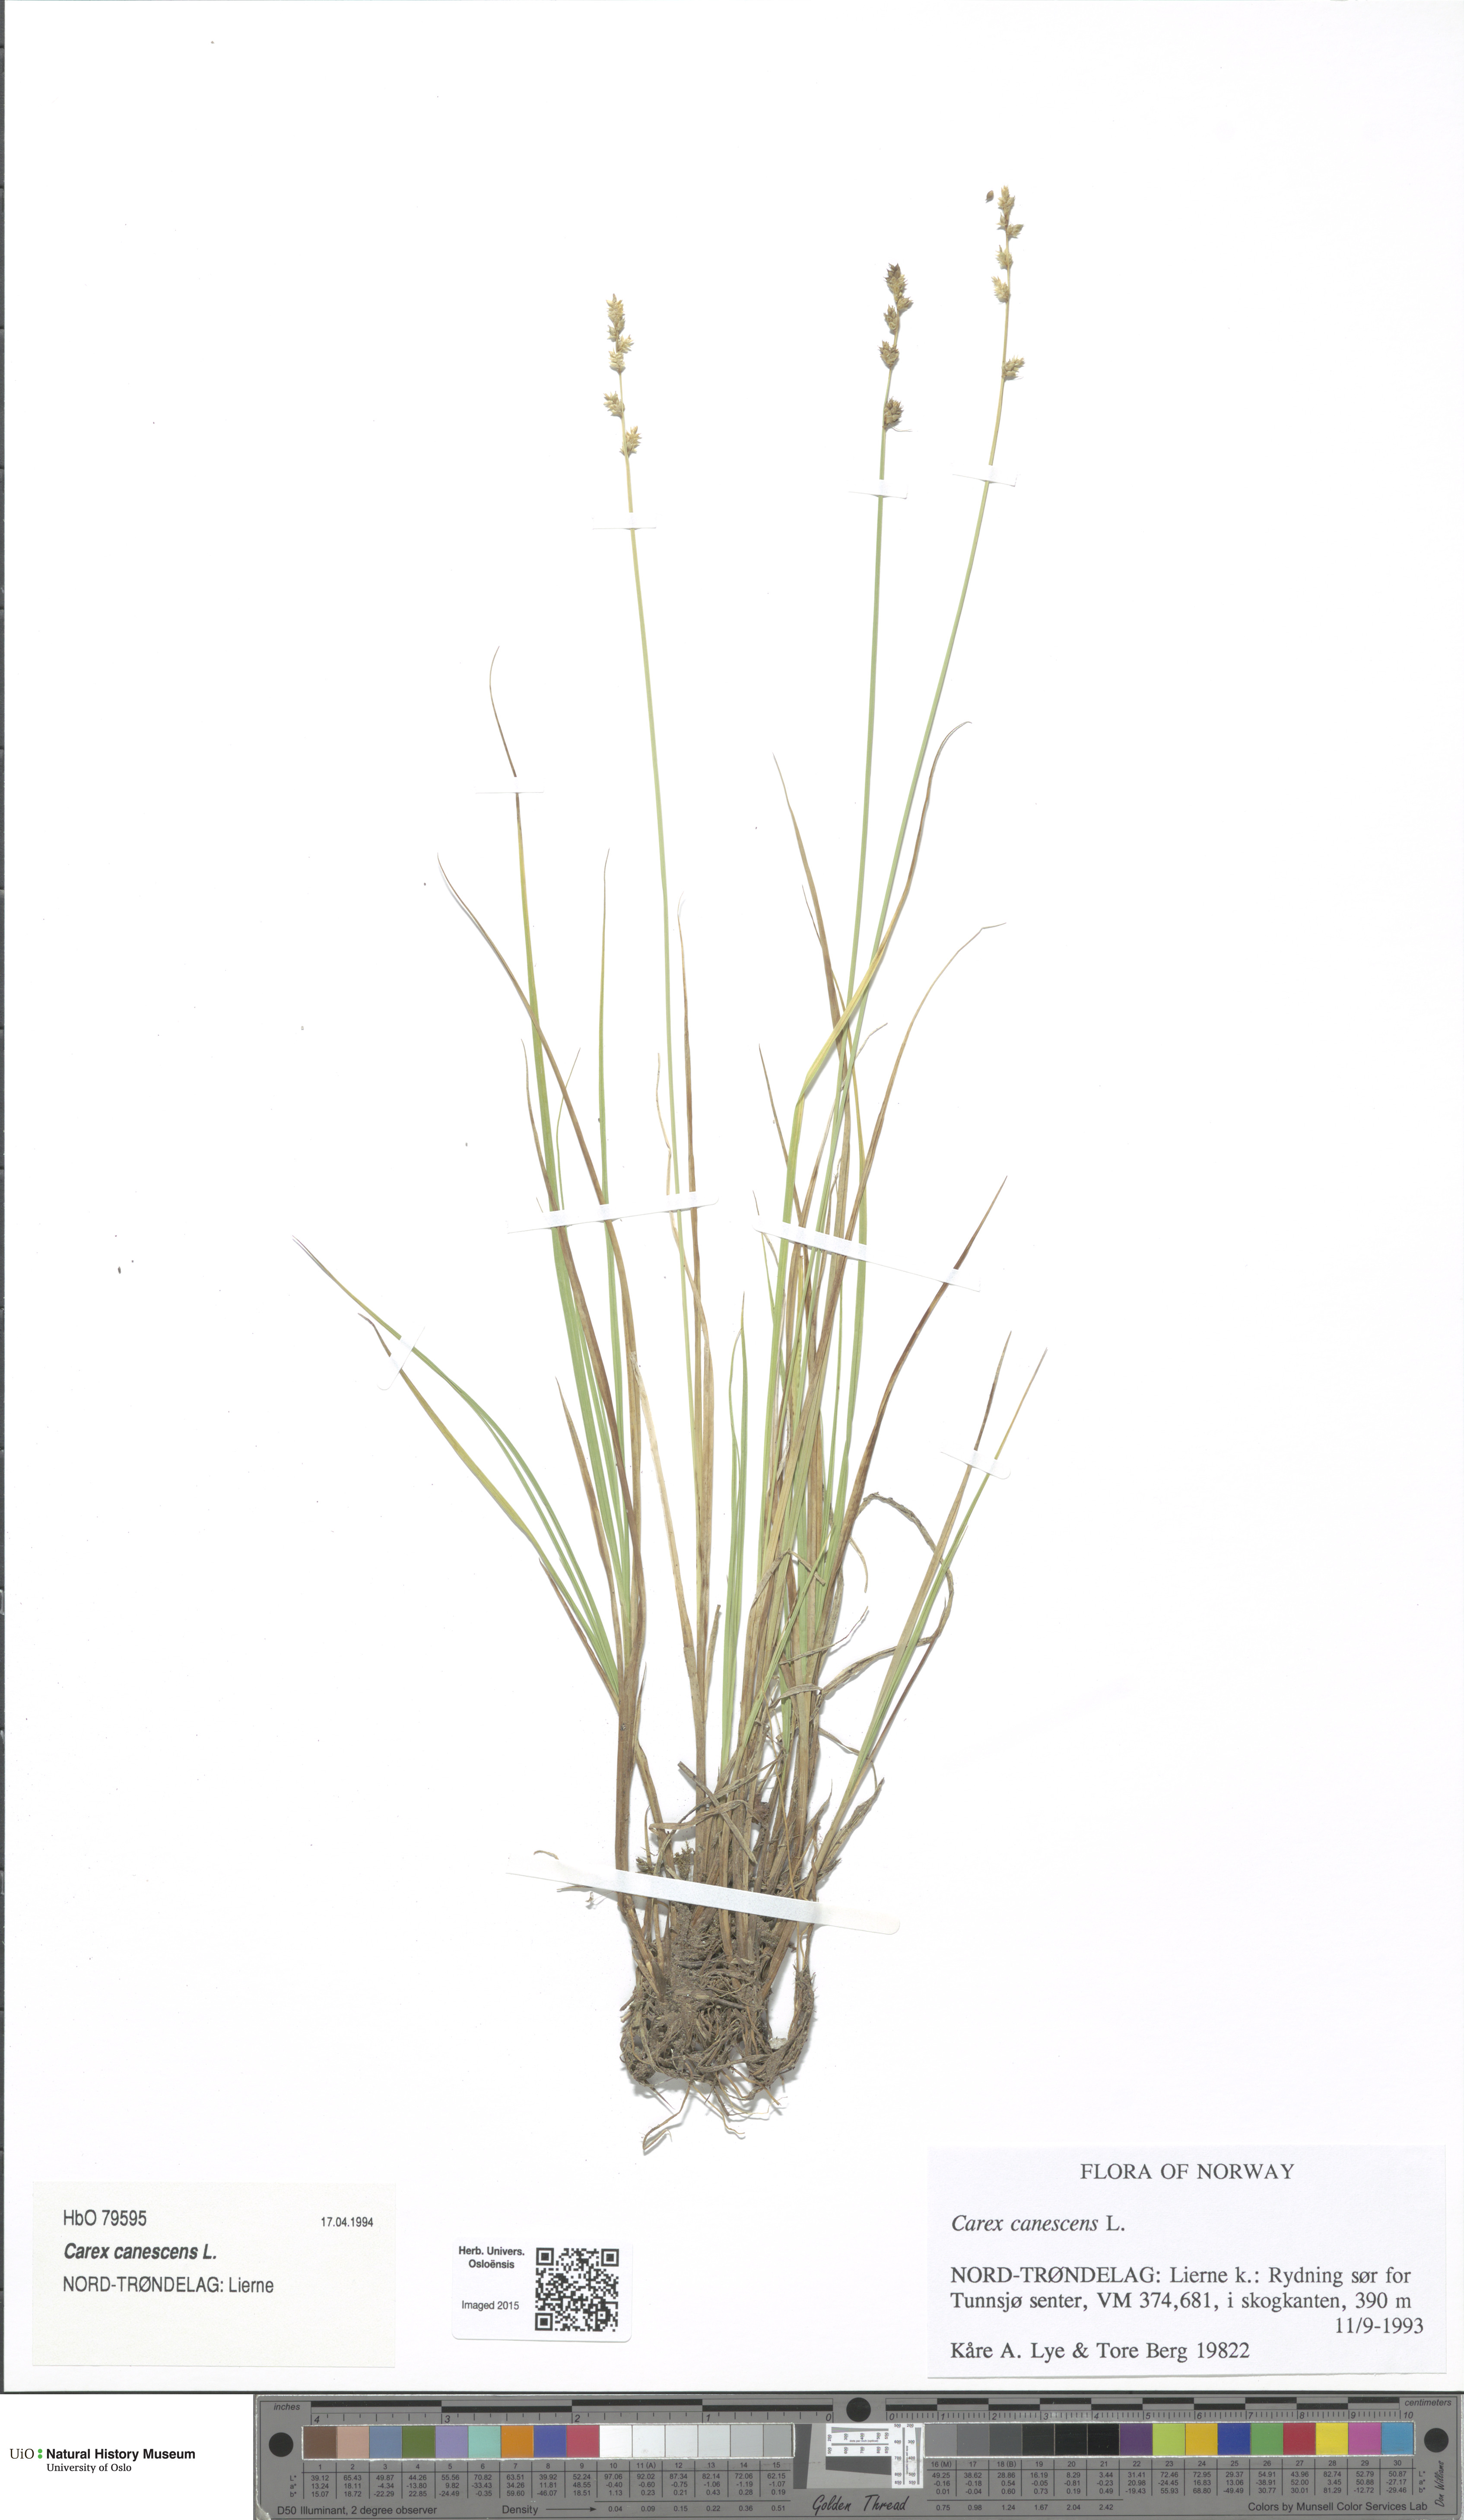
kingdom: Plantae
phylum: Tracheophyta
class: Liliopsida
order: Poales
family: Cyperaceae
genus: Carex
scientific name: Carex canescens
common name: White sedge
